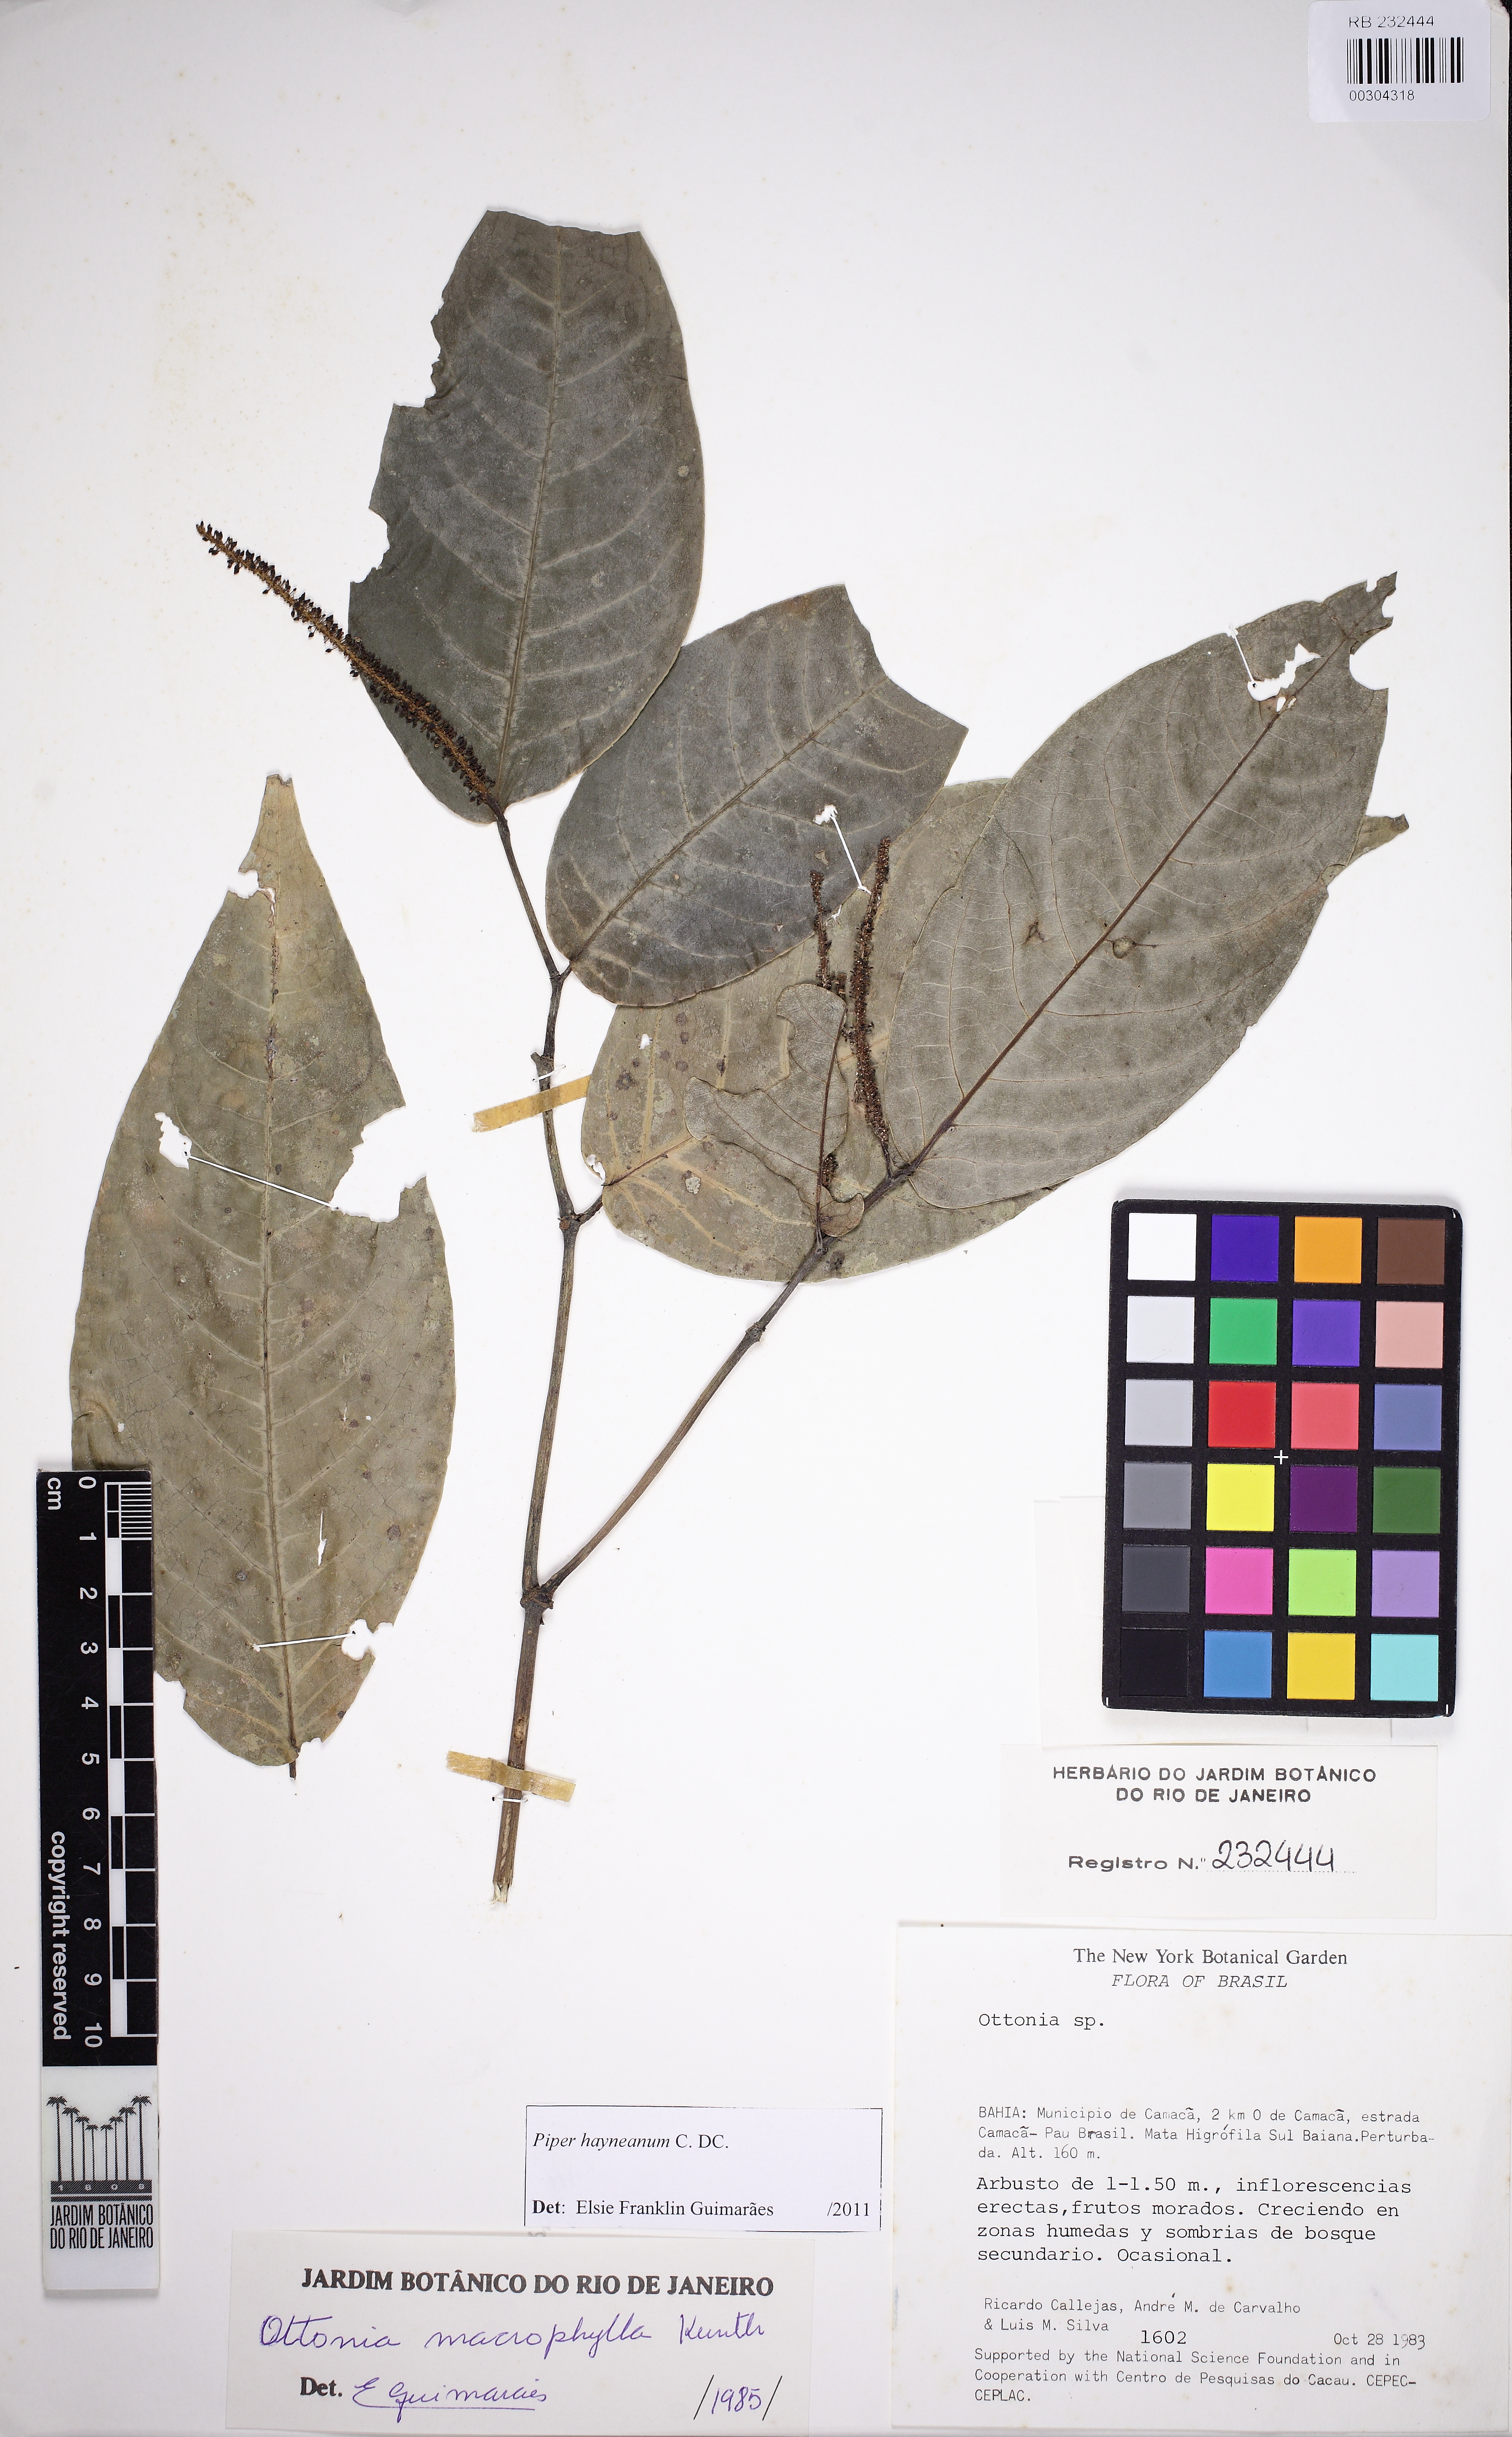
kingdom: Plantae
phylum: Tracheophyta
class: Magnoliopsida
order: Piperales
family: Piperaceae
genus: Piper
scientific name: Piper hayneanum
